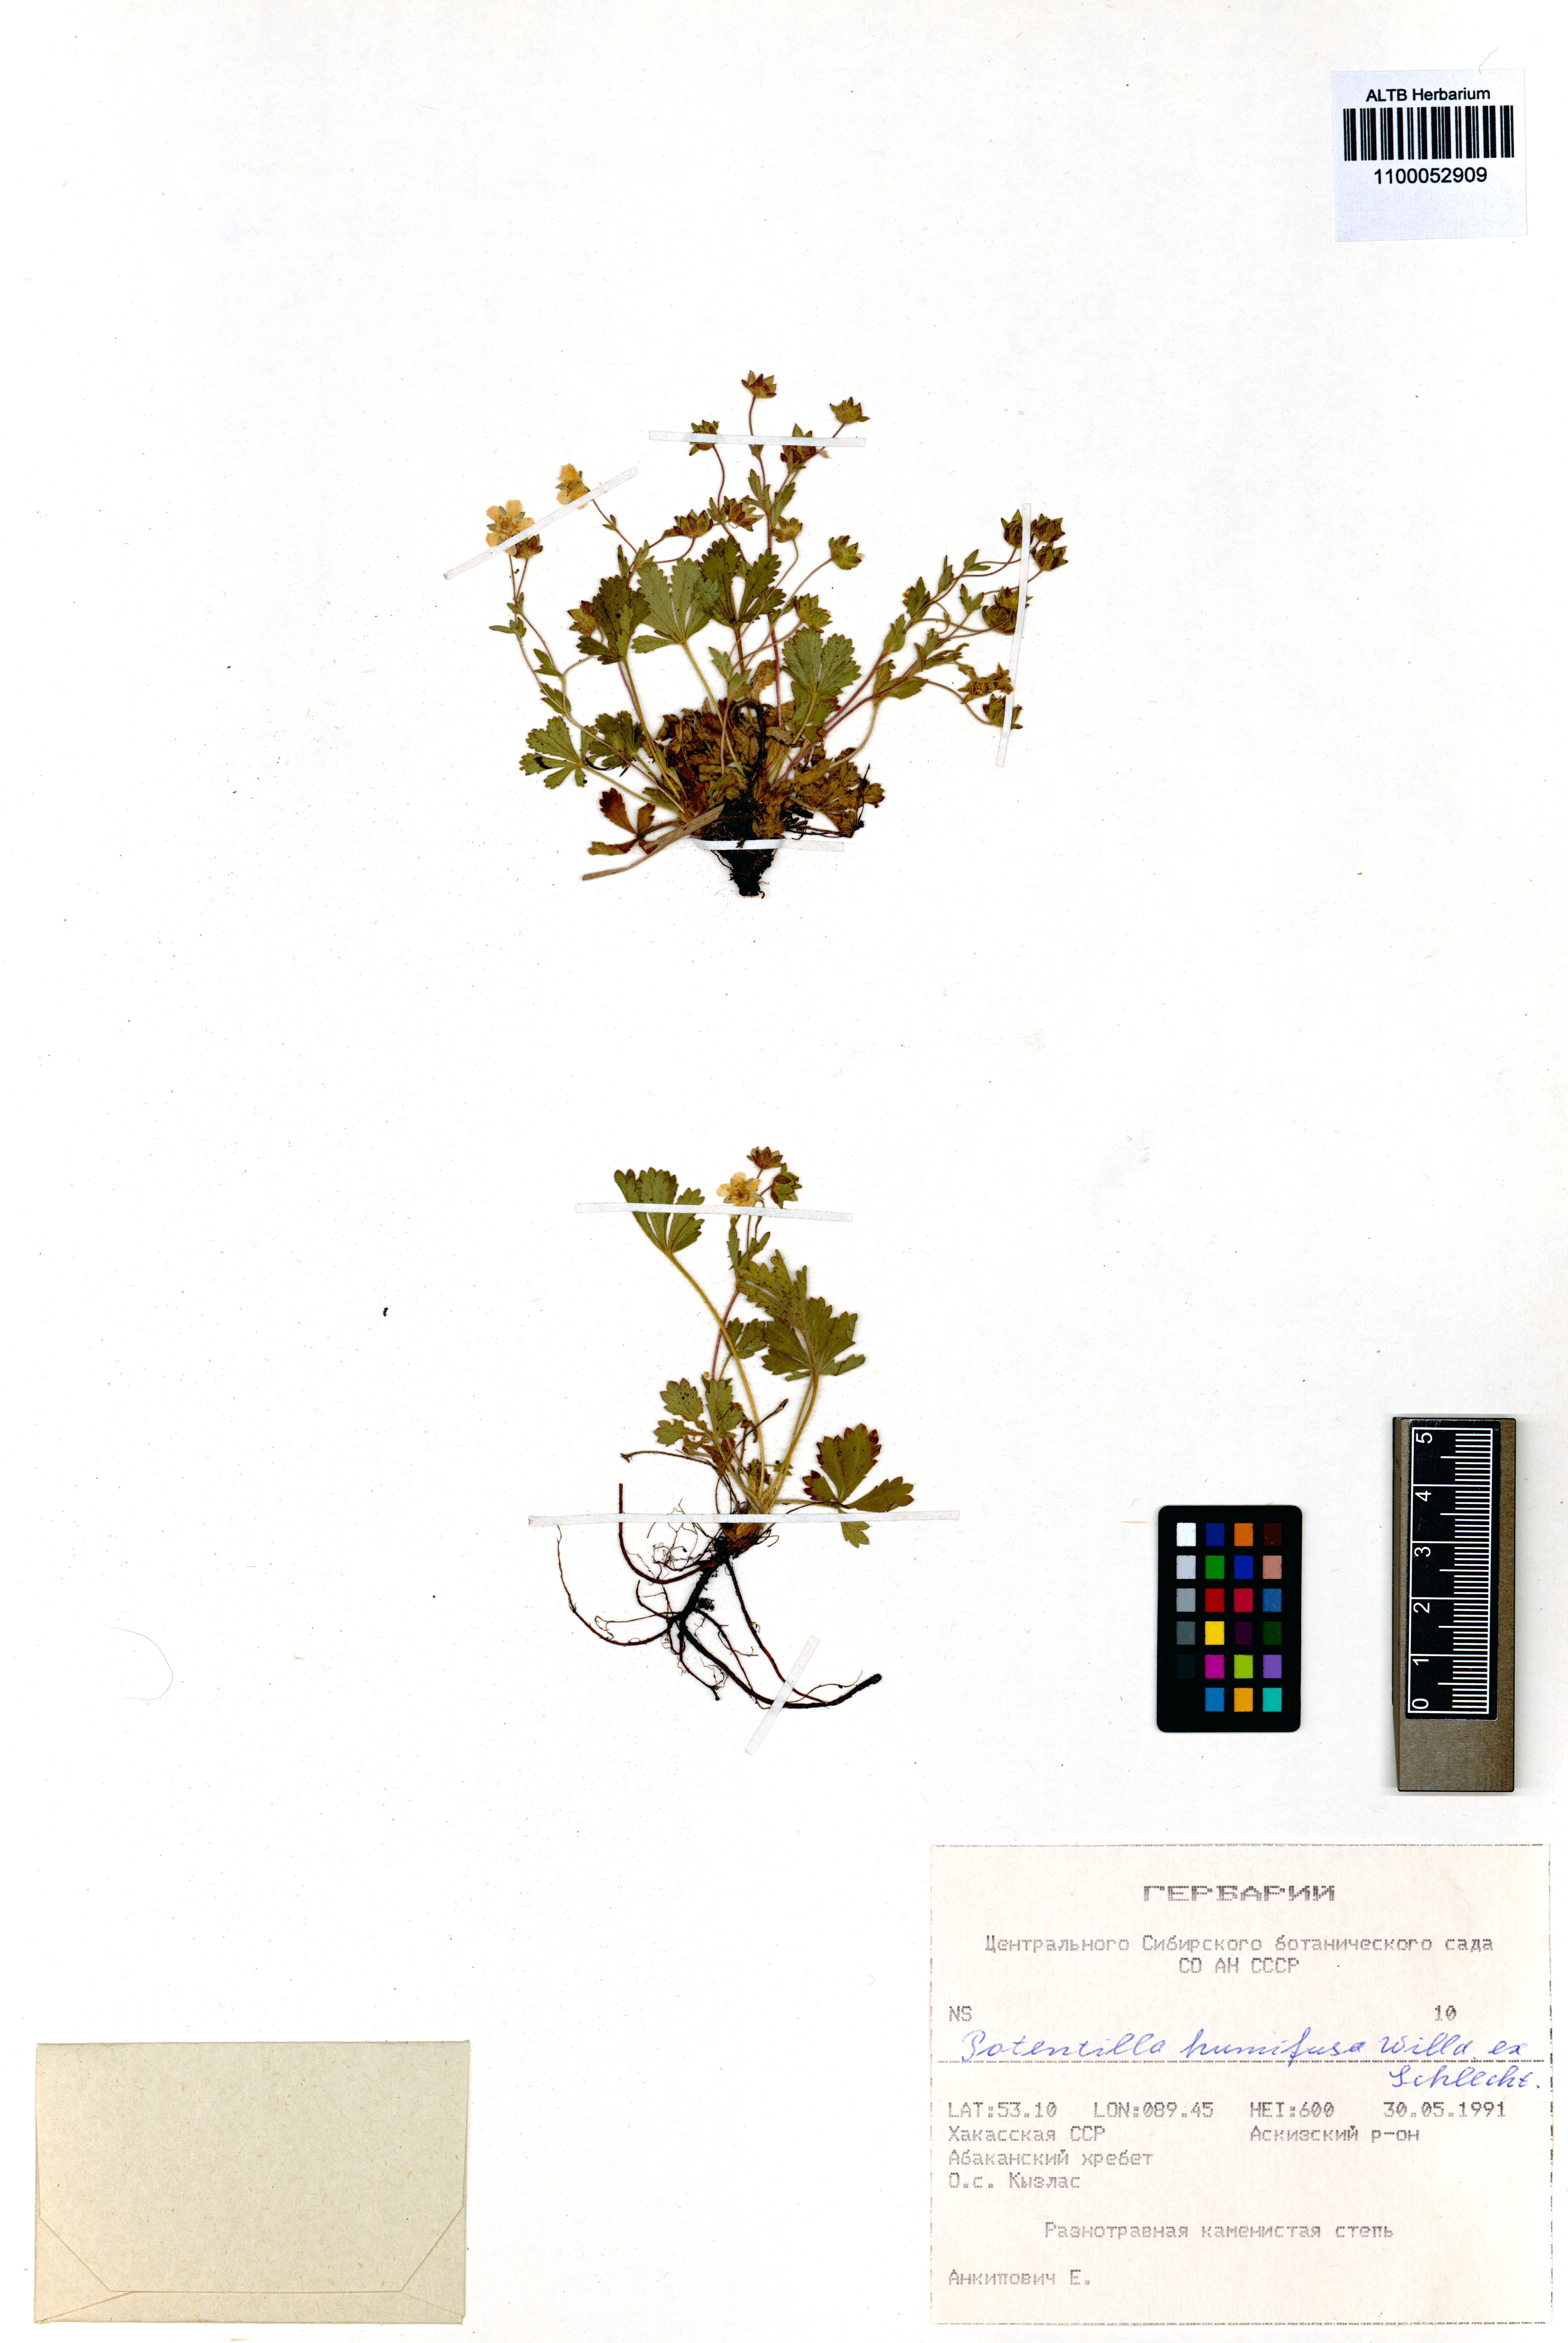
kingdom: Plantae
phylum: Tracheophyta
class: Magnoliopsida
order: Rosales
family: Rosaceae
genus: Potentilla
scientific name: Potentilla humifusa
